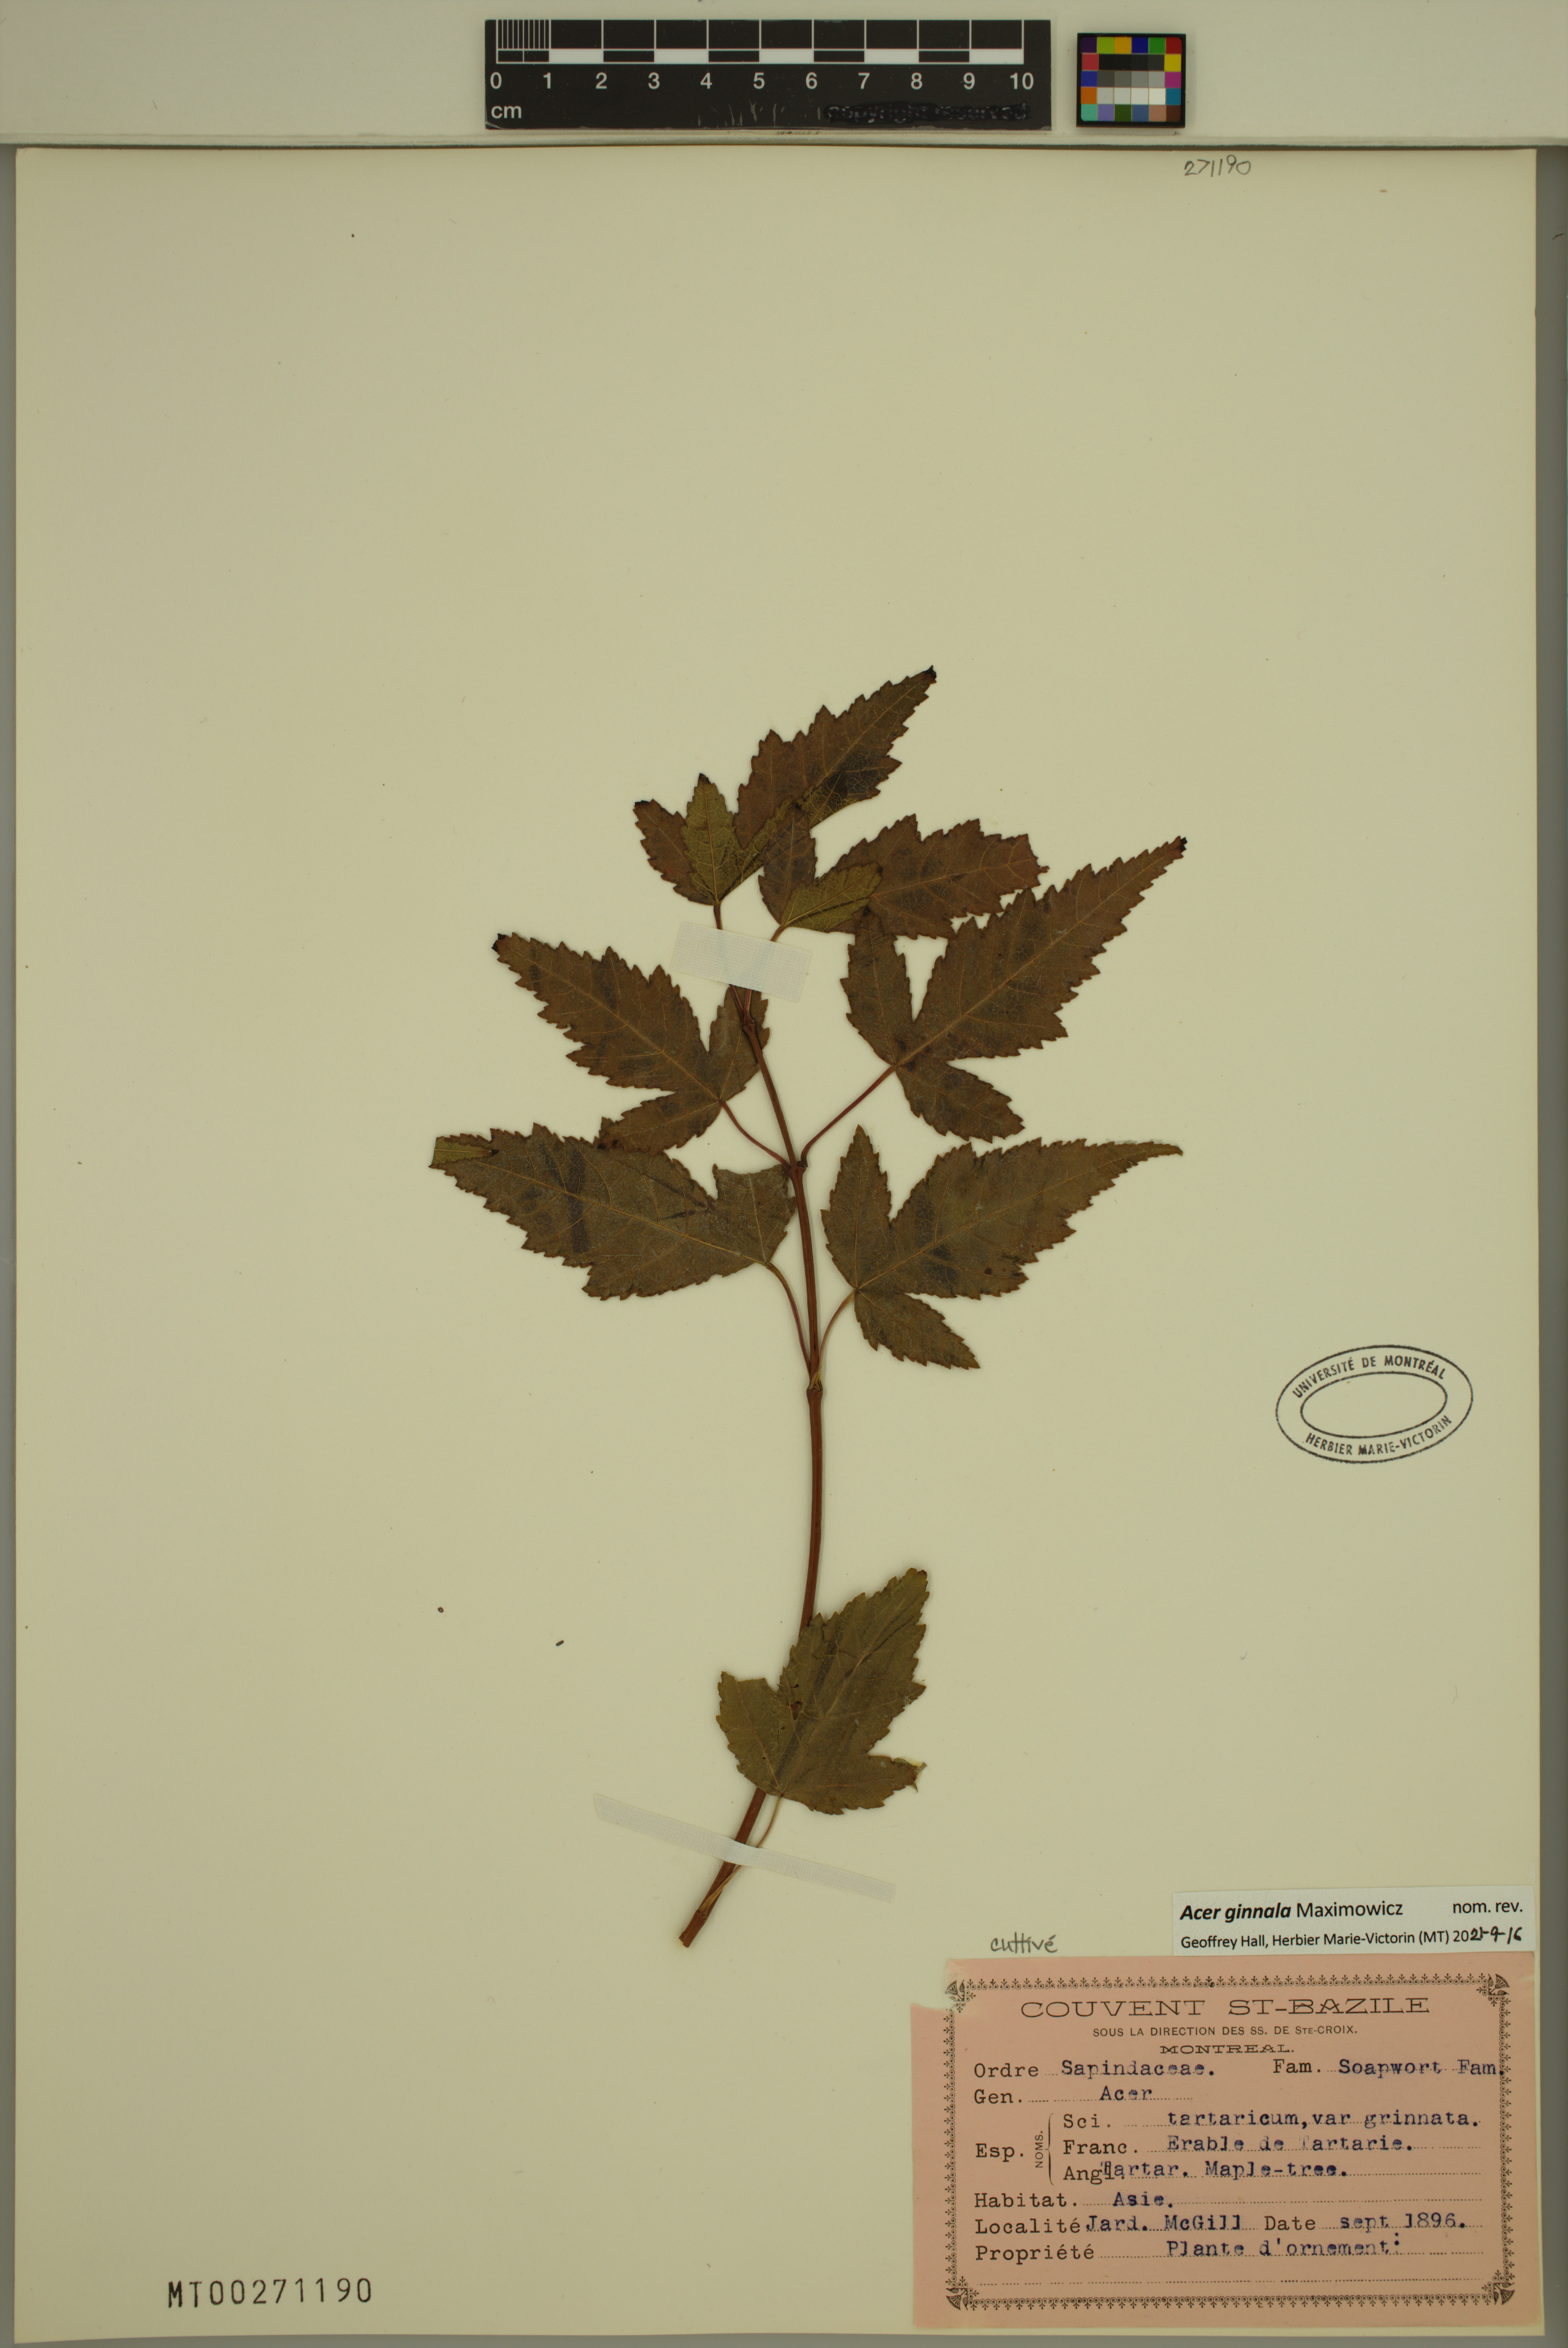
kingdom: Plantae
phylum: Tracheophyta
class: Magnoliopsida
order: Sapindales
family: Sapindaceae
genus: Acer
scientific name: Acer tataricum
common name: Tartar maple
